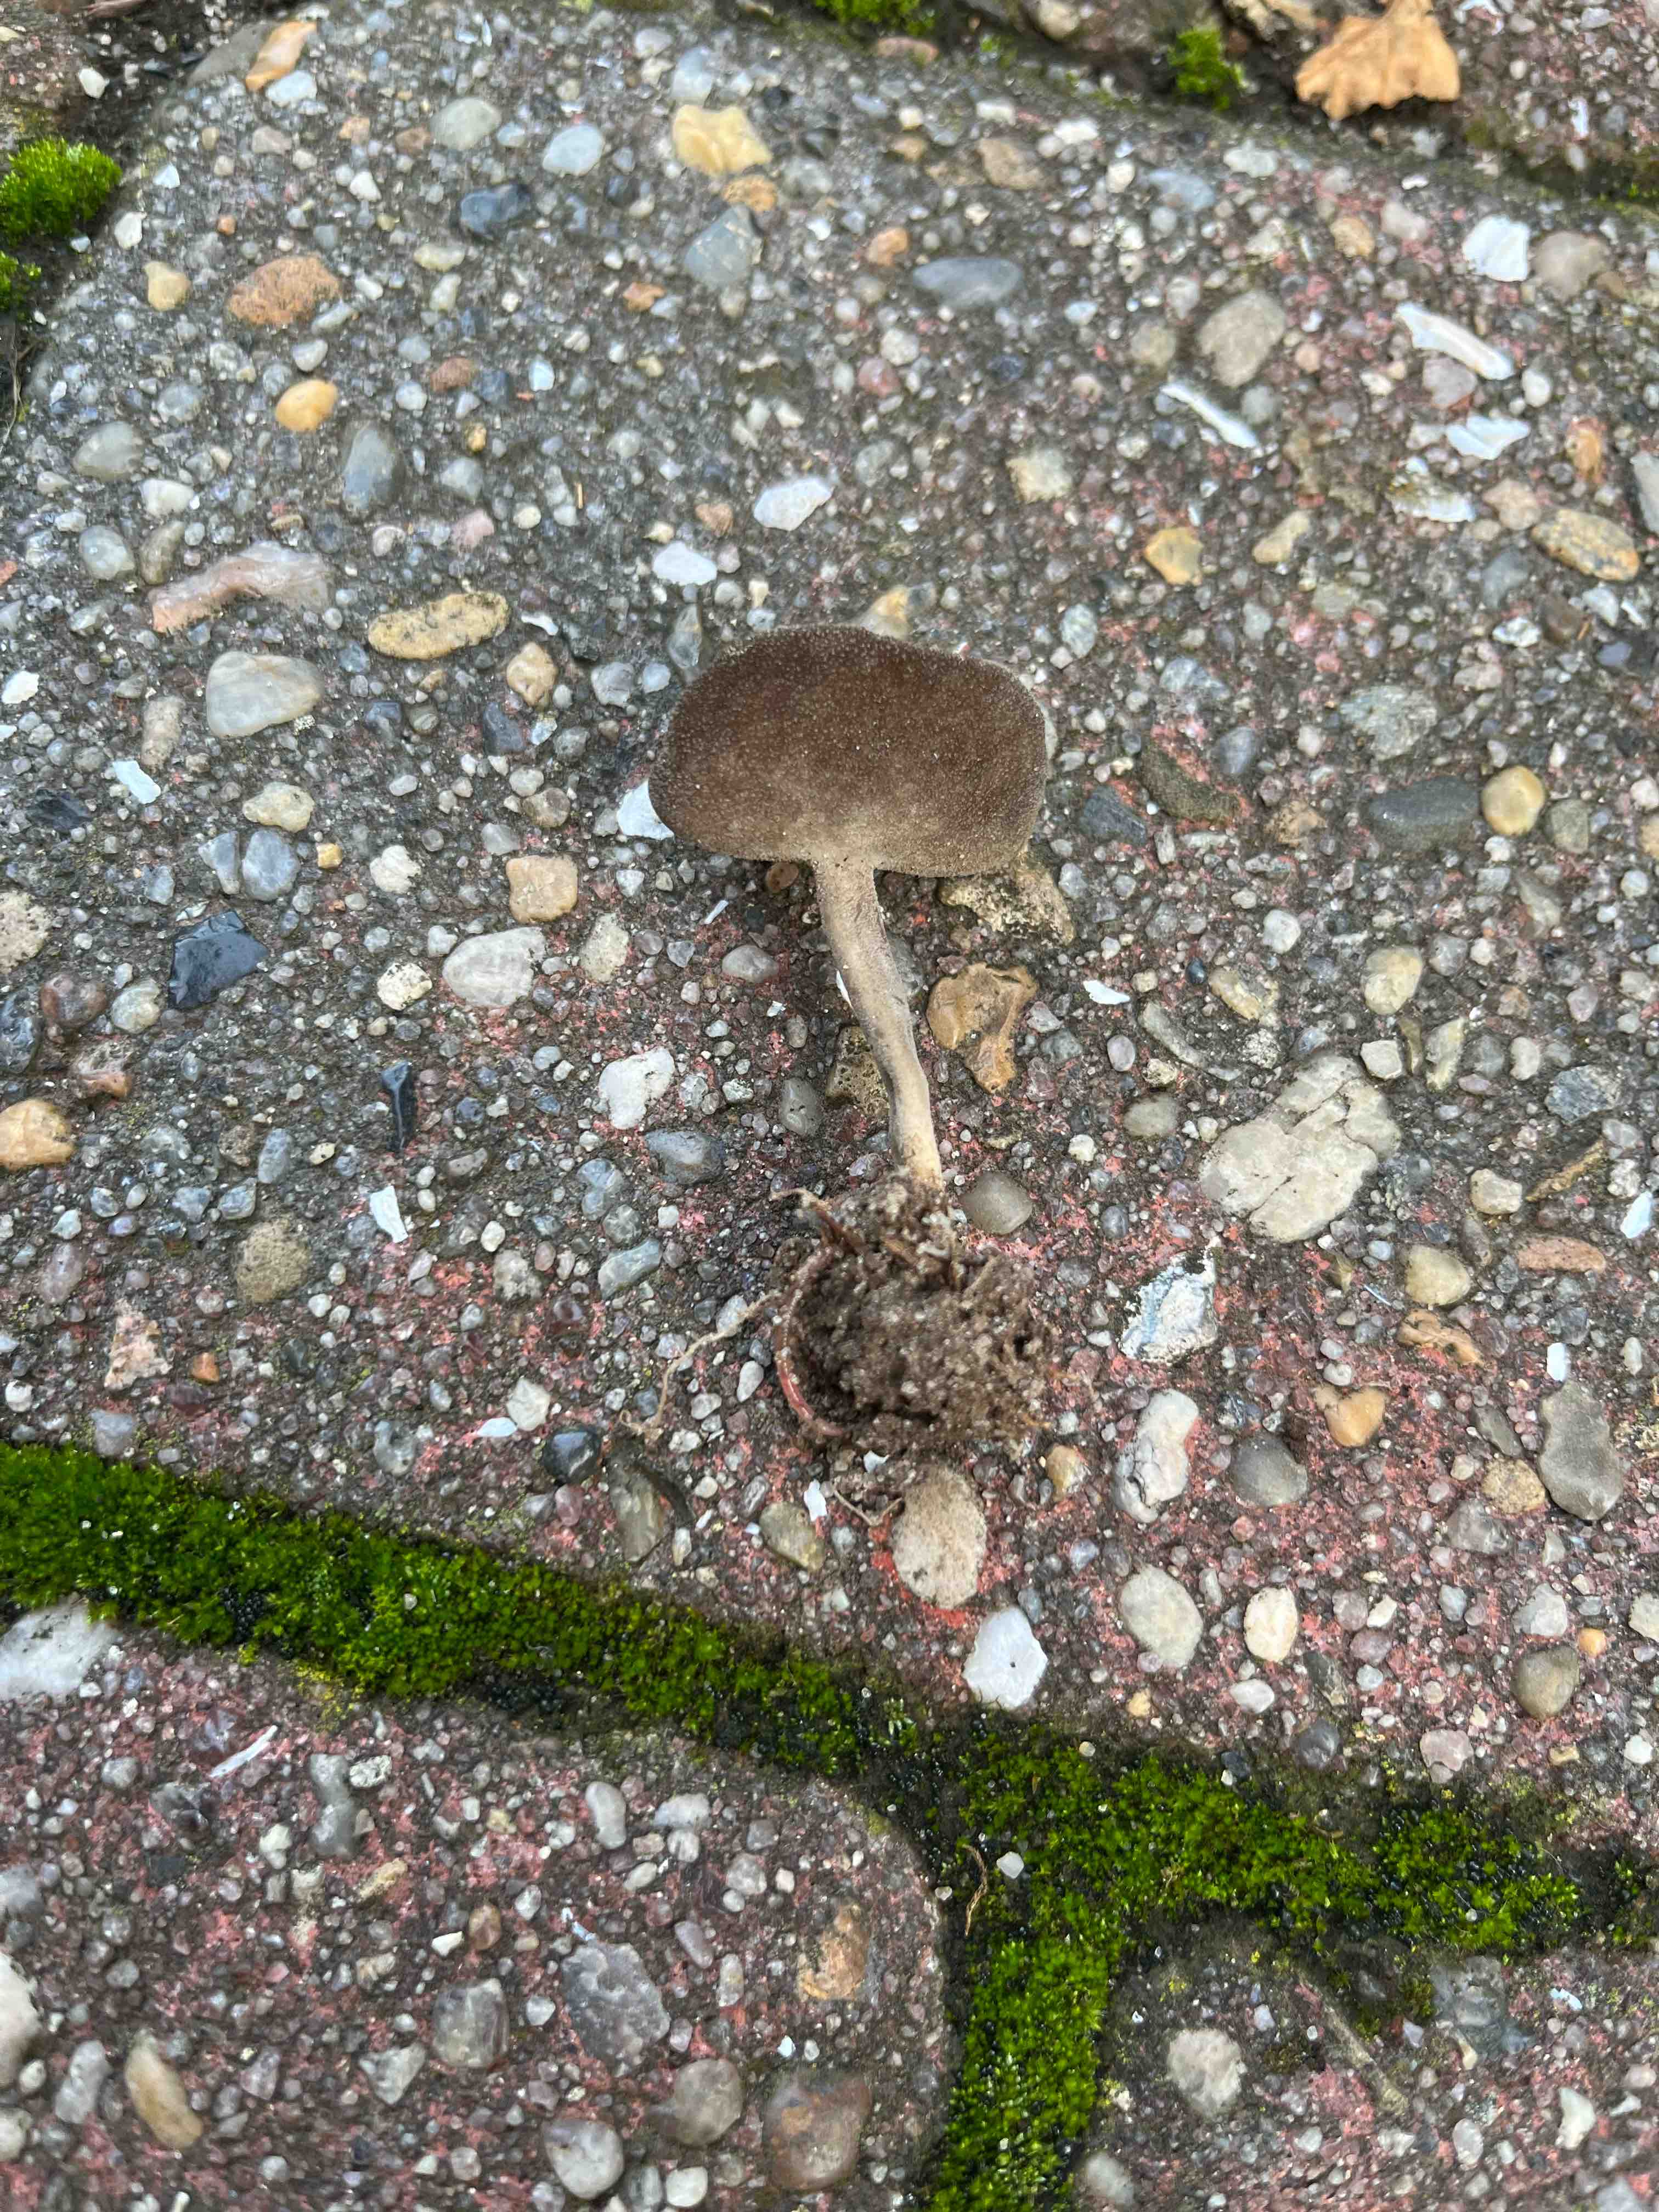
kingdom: Fungi
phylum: Ascomycota
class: Pezizomycetes
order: Pezizales
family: Helvellaceae
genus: Helvella
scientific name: Helvella
